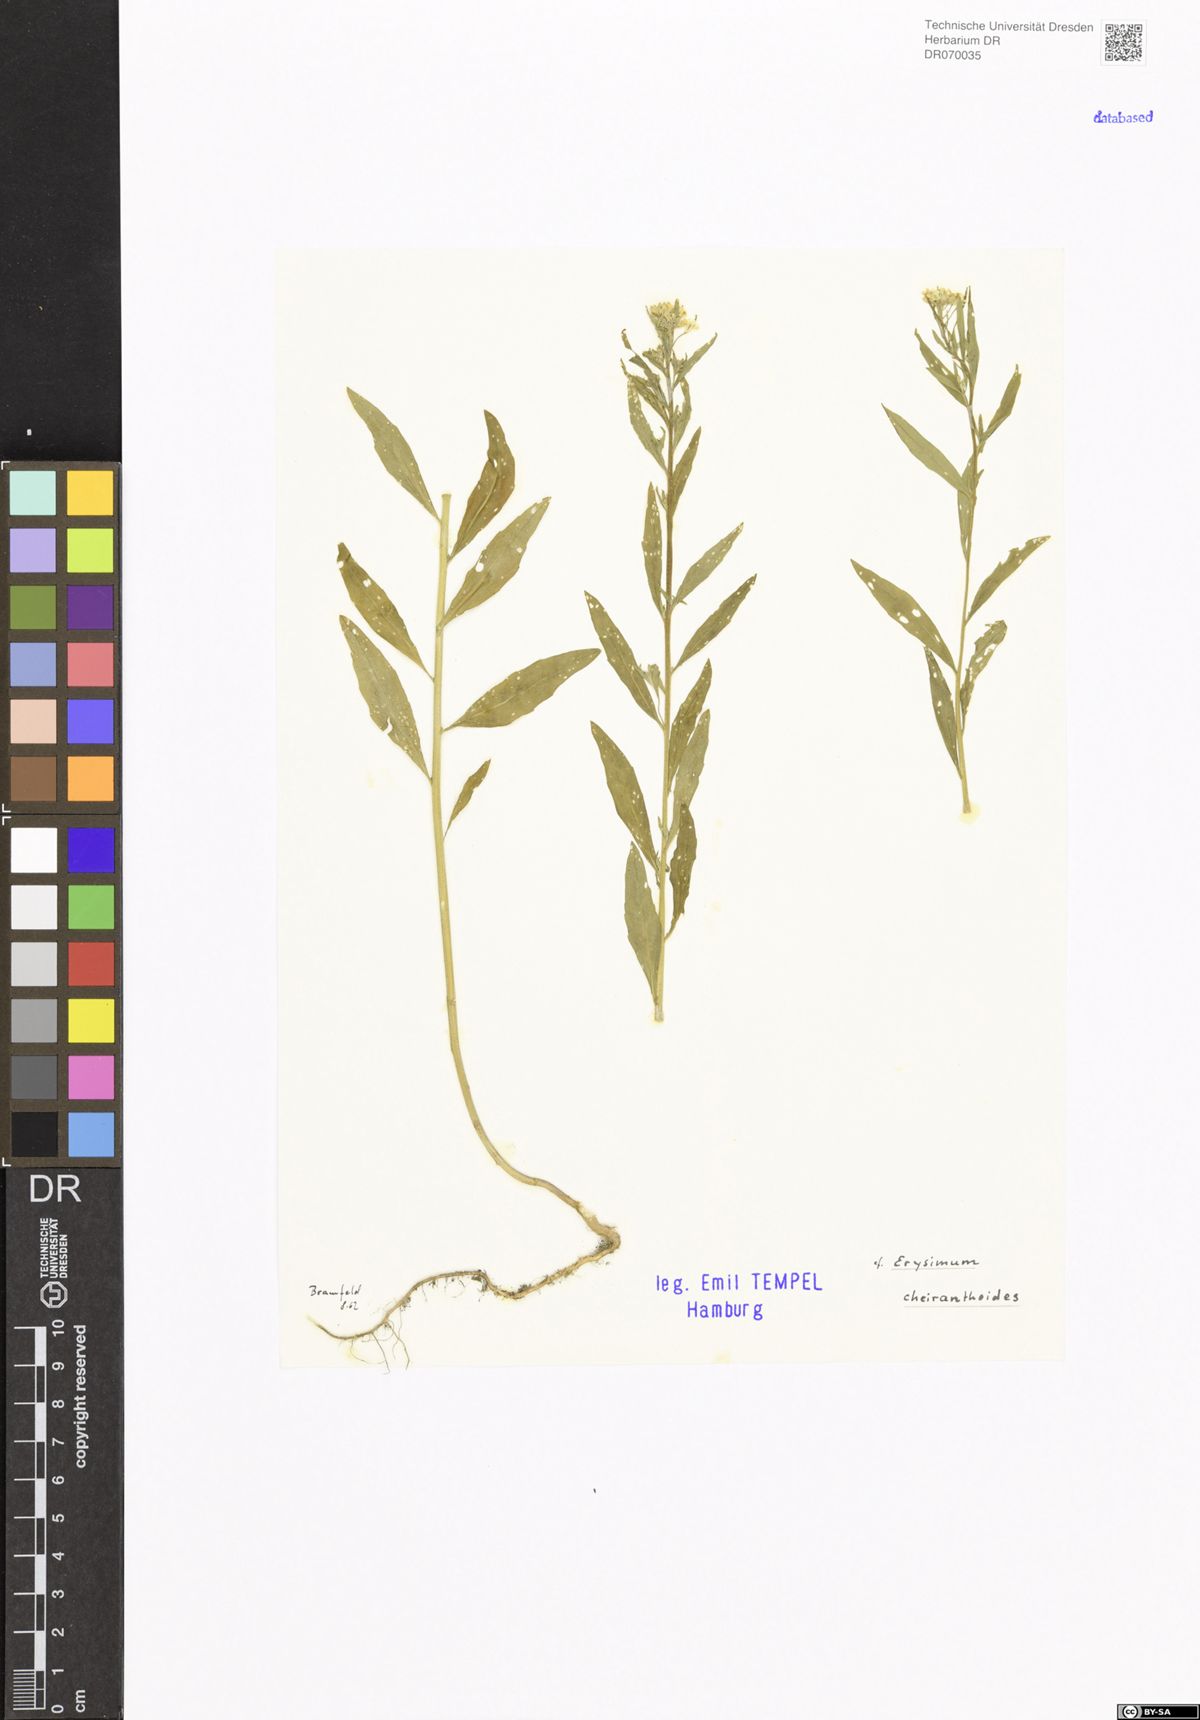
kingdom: Plantae
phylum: Tracheophyta
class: Magnoliopsida
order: Brassicales
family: Brassicaceae
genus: Erysimum
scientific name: Erysimum cheiranthoides
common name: Treacle mustard
